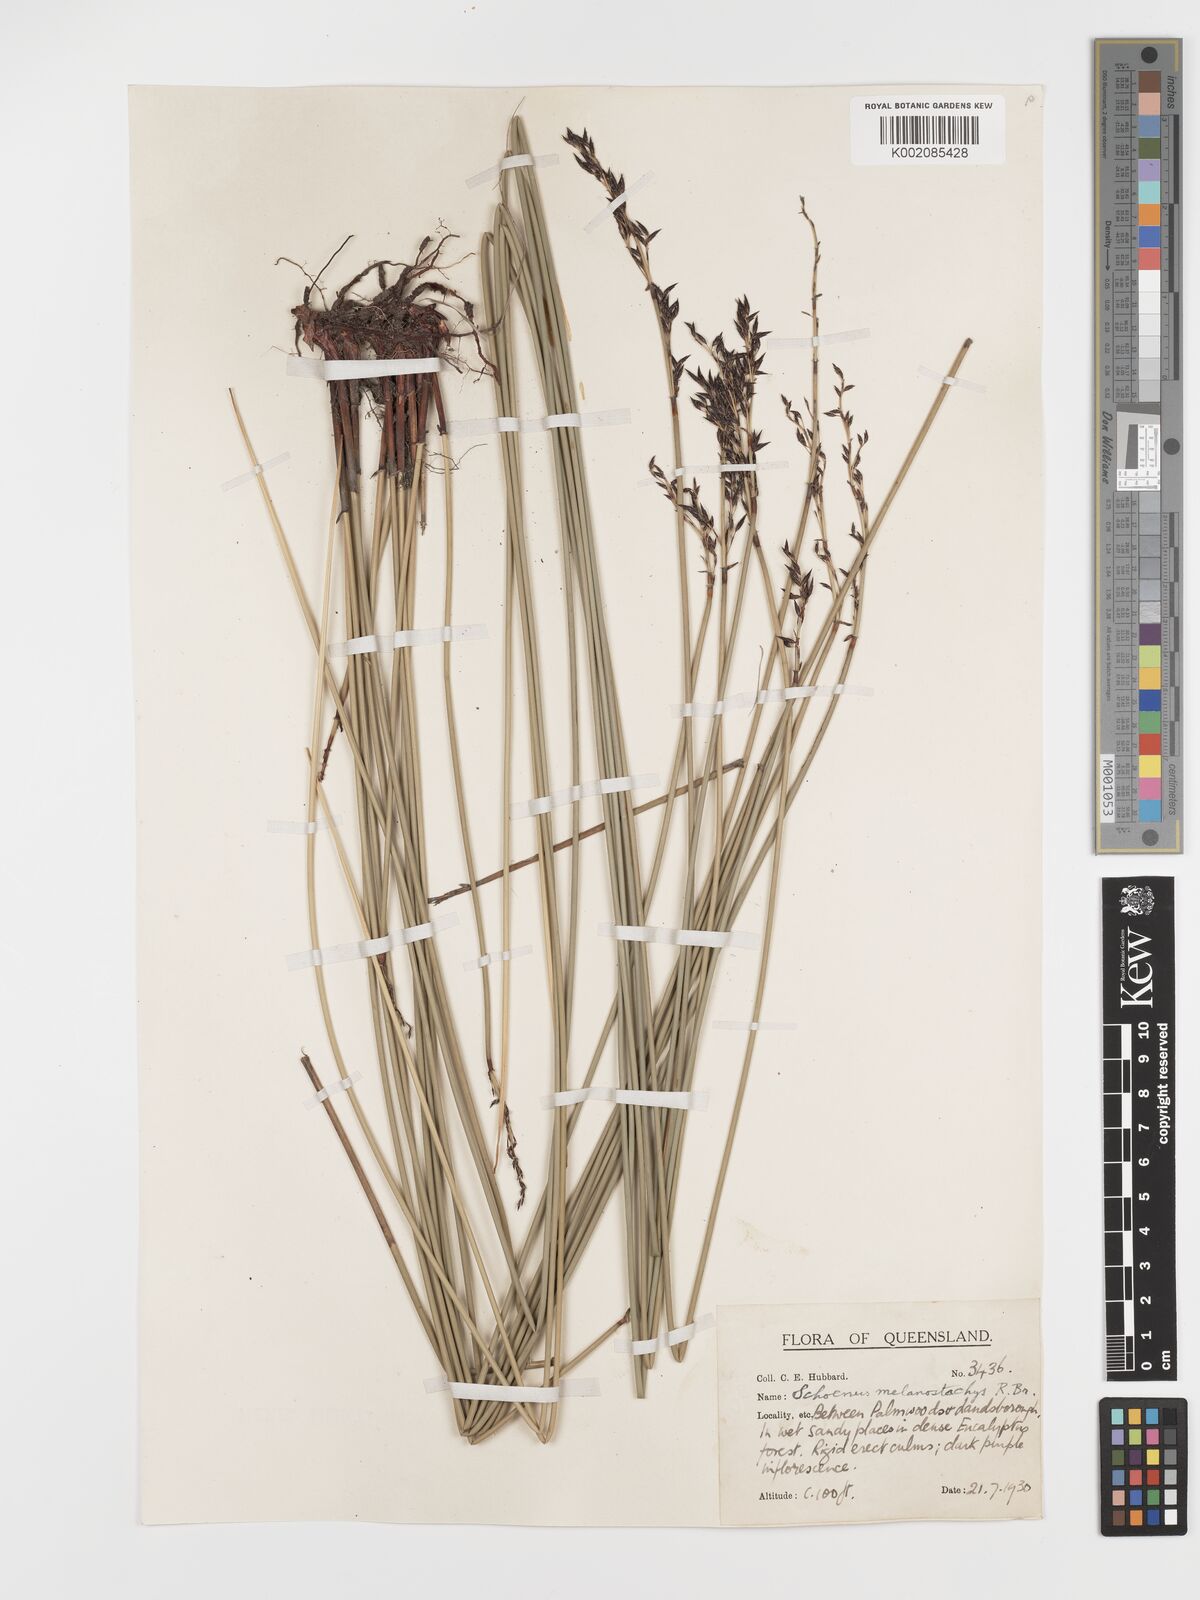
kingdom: Plantae
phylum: Tracheophyta
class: Liliopsida
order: Poales
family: Cyperaceae
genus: Schoenus
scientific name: Schoenus melanostachys
